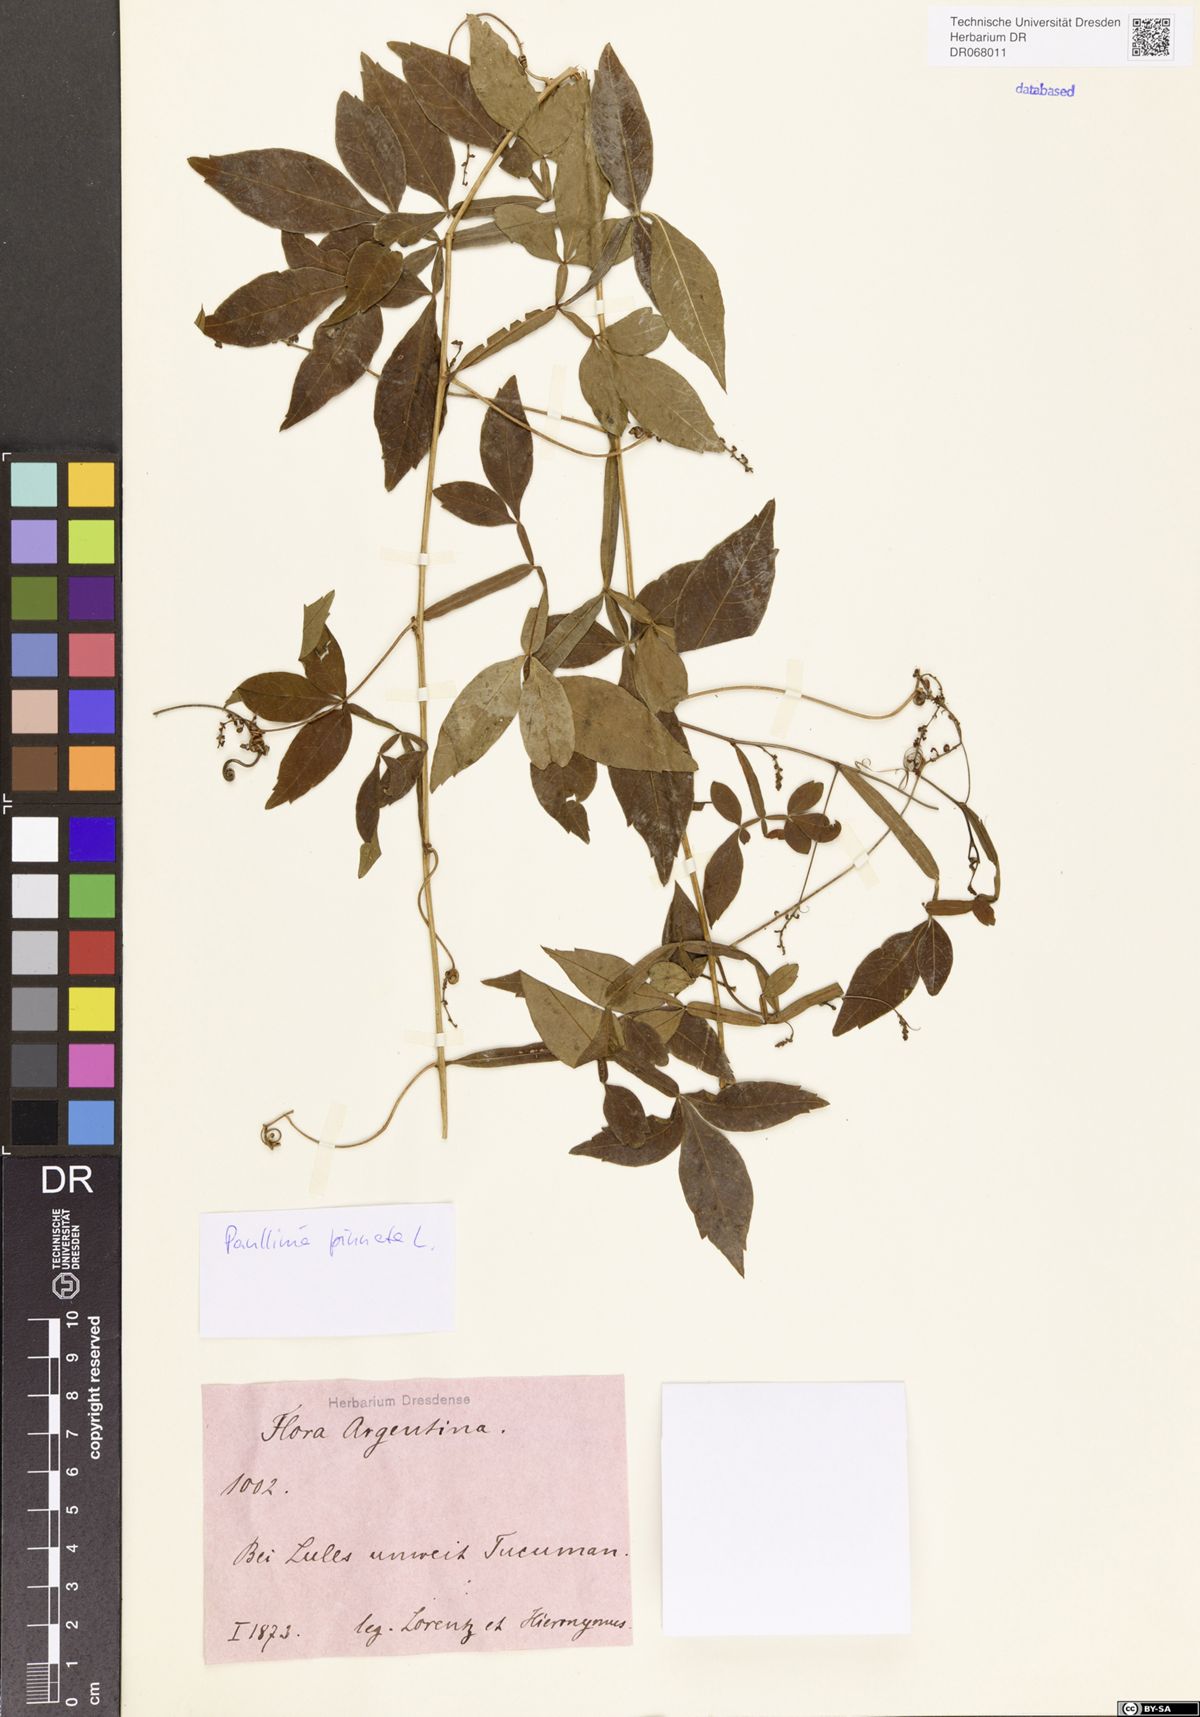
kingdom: Plantae
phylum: Tracheophyta
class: Magnoliopsida
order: Sapindales
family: Sapindaceae
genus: Paullinia
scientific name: Paullinia pinnata
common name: Barbasco
